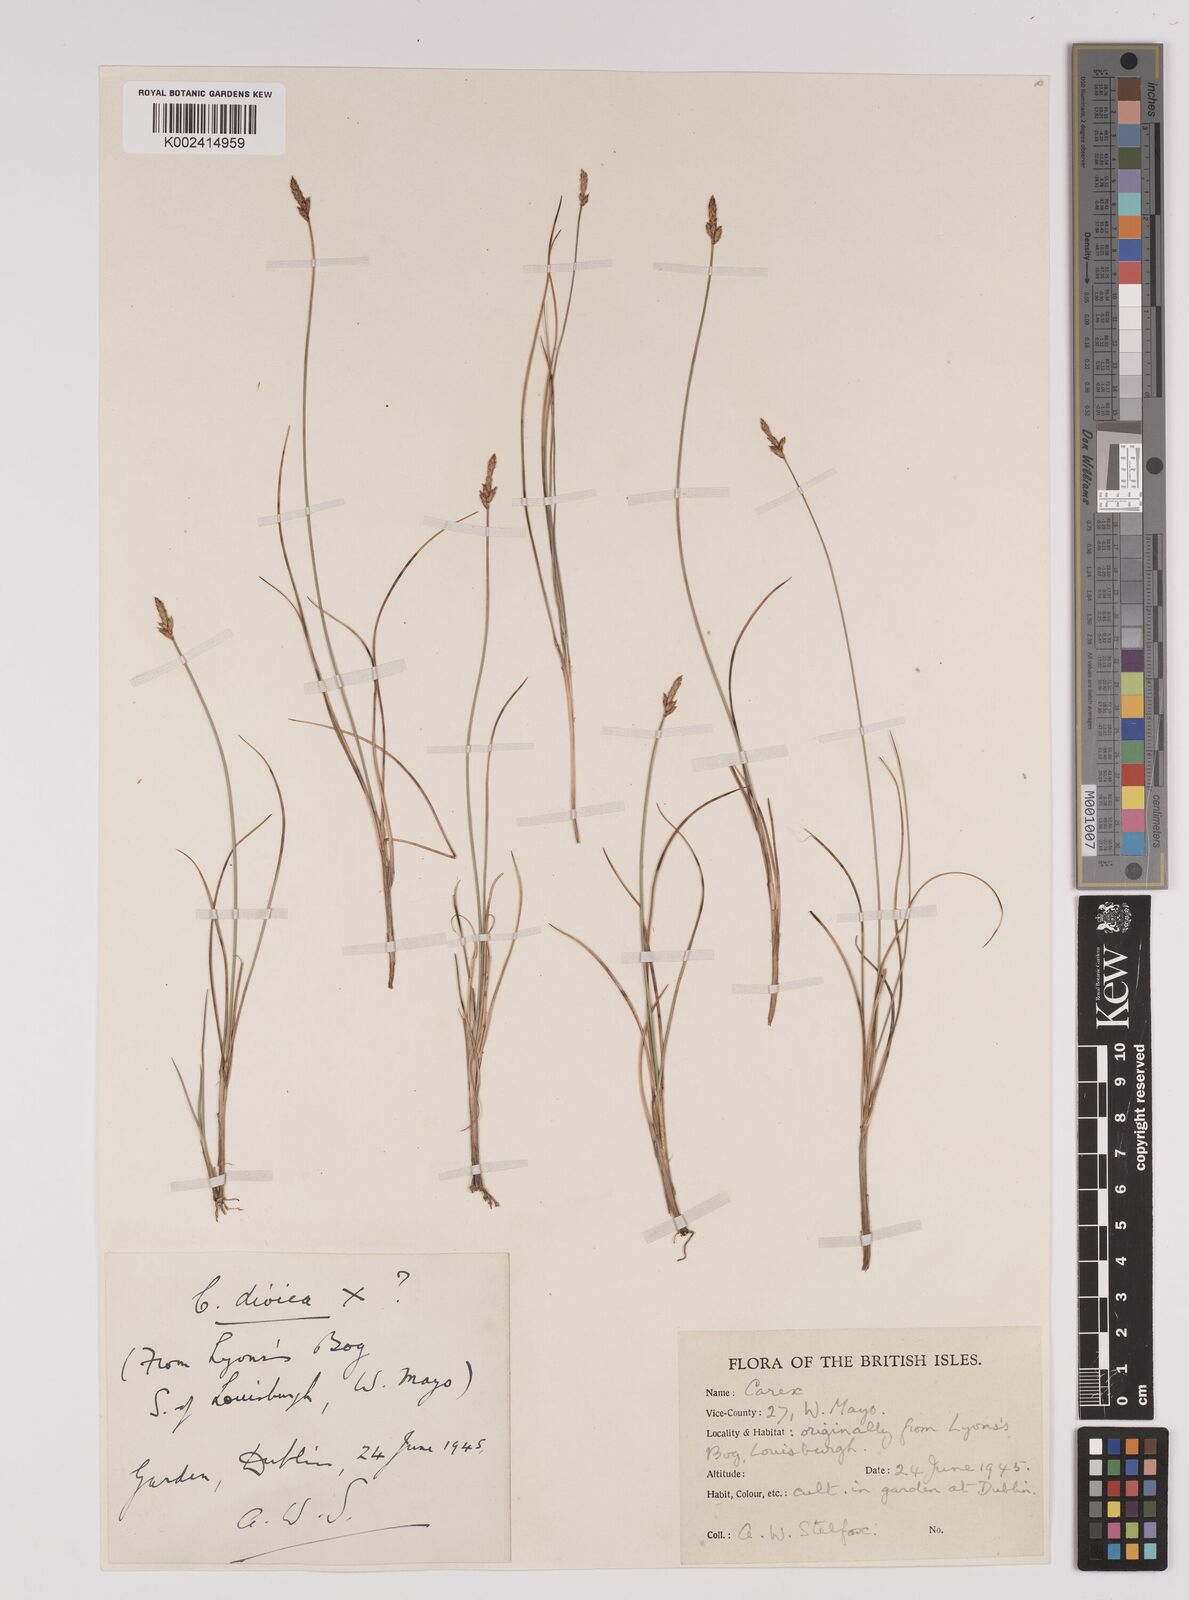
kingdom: Plantae
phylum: Tracheophyta
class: Liliopsida
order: Poales
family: Cyperaceae
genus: Carex
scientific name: Carex dioica
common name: Dioecious sedge
